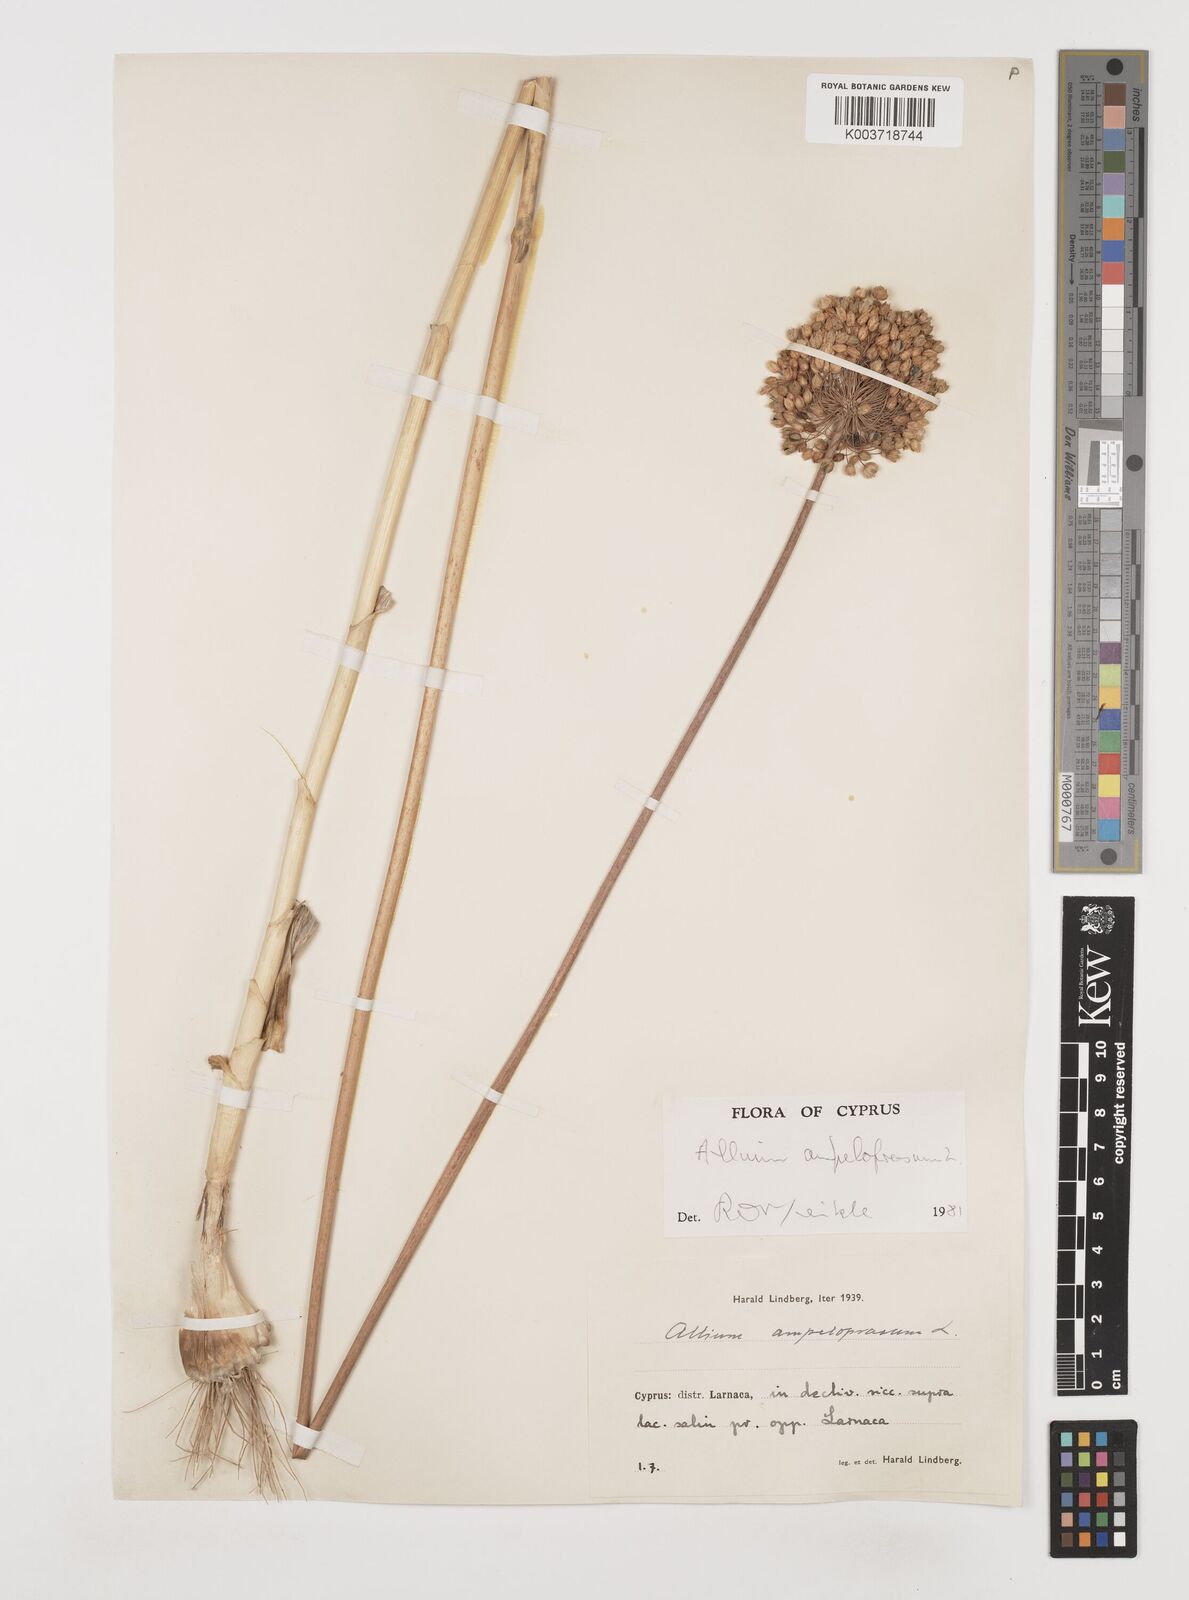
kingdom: Plantae
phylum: Tracheophyta
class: Liliopsida
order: Asparagales
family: Amaryllidaceae
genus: Allium
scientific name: Allium rotundum
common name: Sand leek
